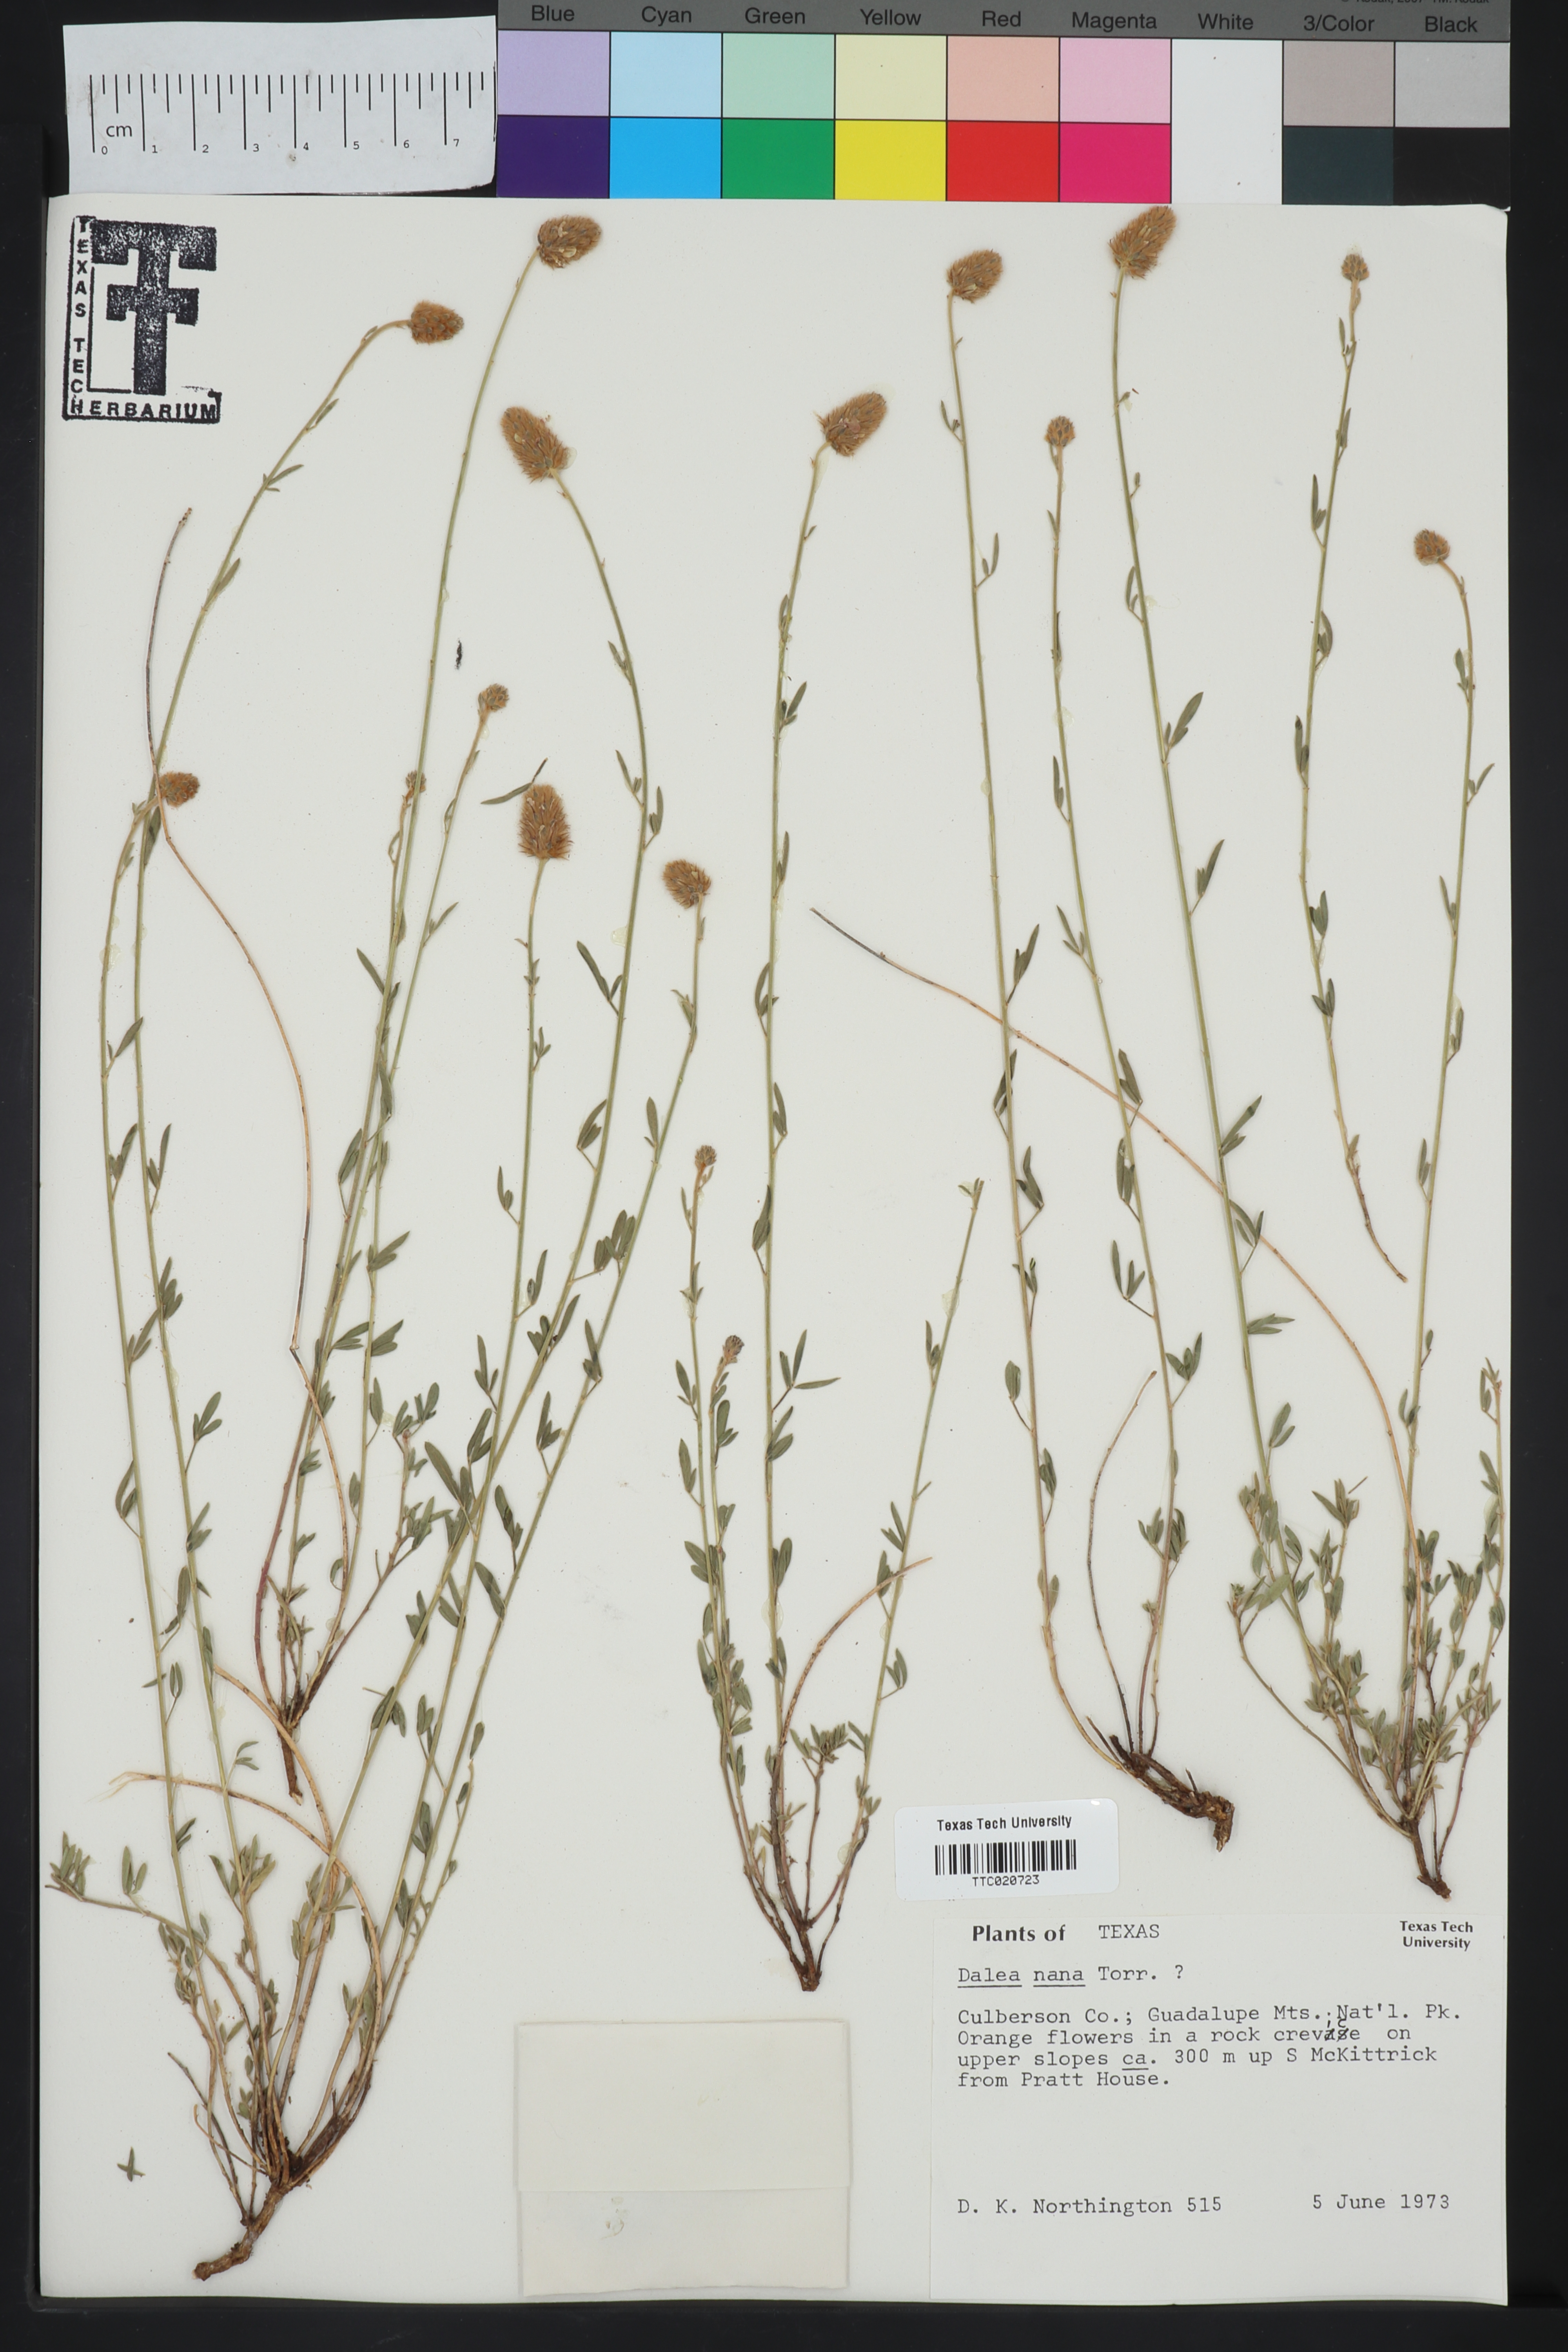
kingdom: Plantae
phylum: Tracheophyta
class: Magnoliopsida
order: Fabales
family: Fabaceae
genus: Dalea
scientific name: Dalea nana
